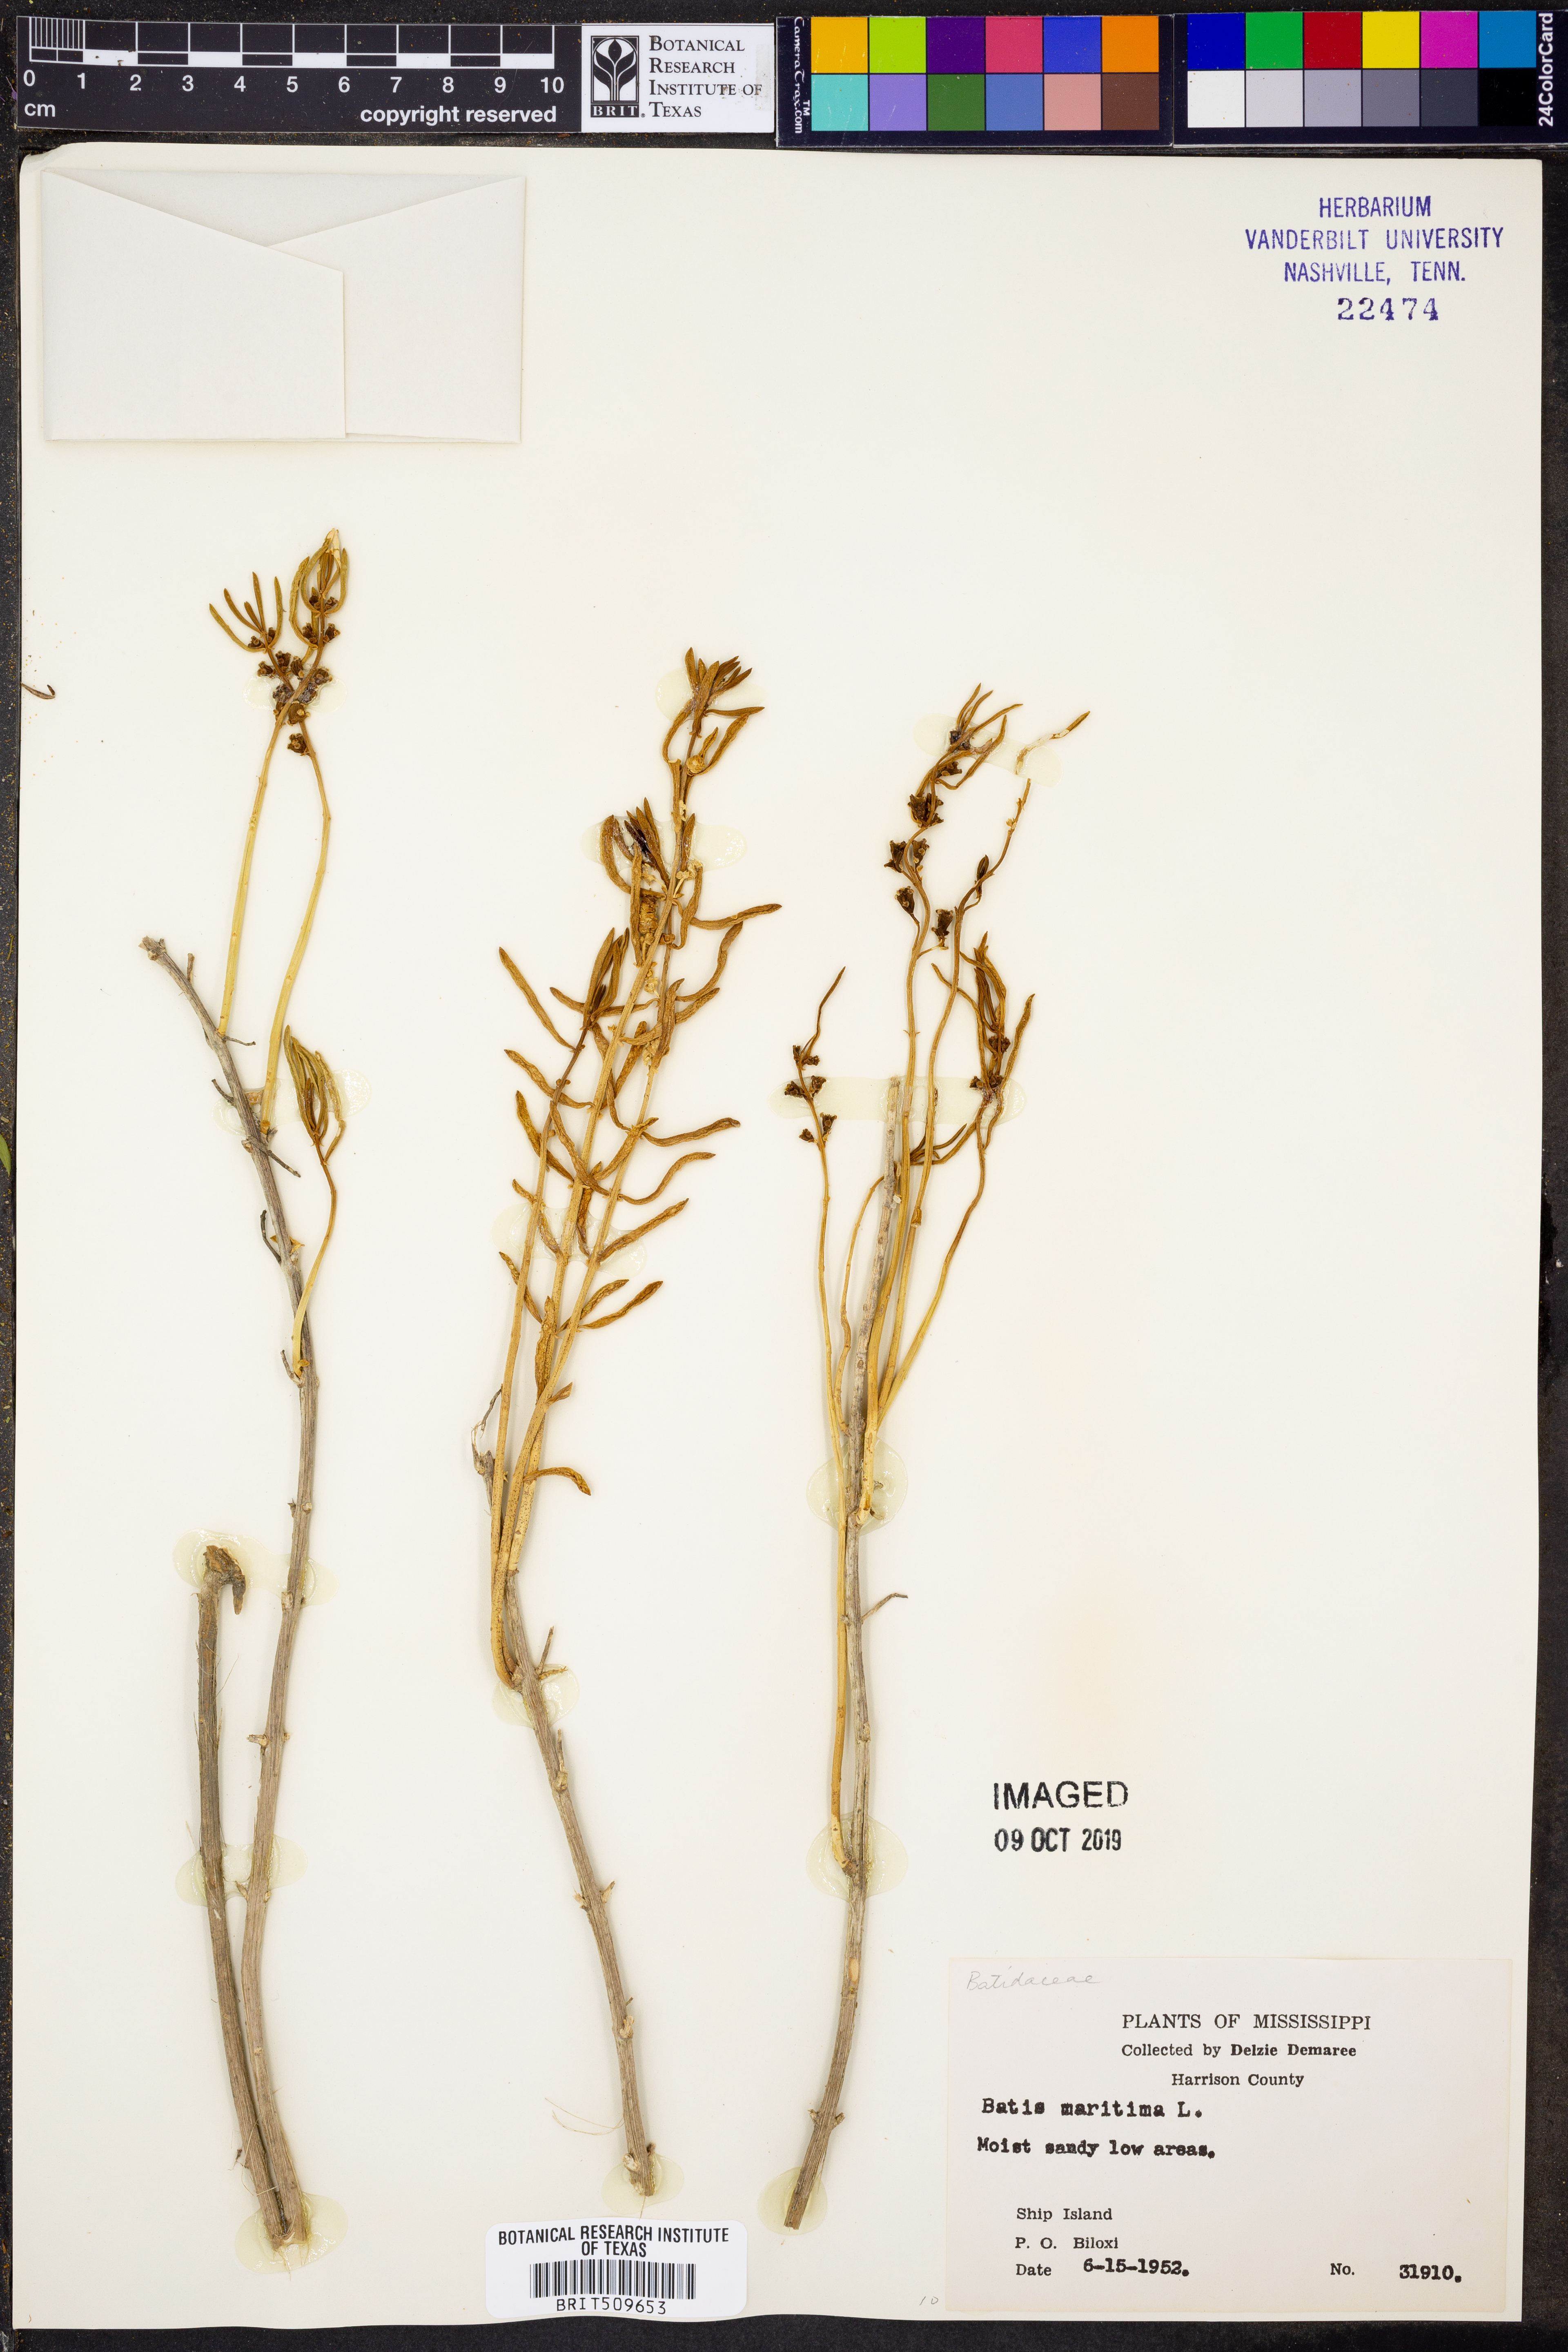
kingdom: Plantae
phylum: Tracheophyta
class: Magnoliopsida
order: Brassicales
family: Bataceae
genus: Batis
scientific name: Batis maritima
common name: Turtleweed
